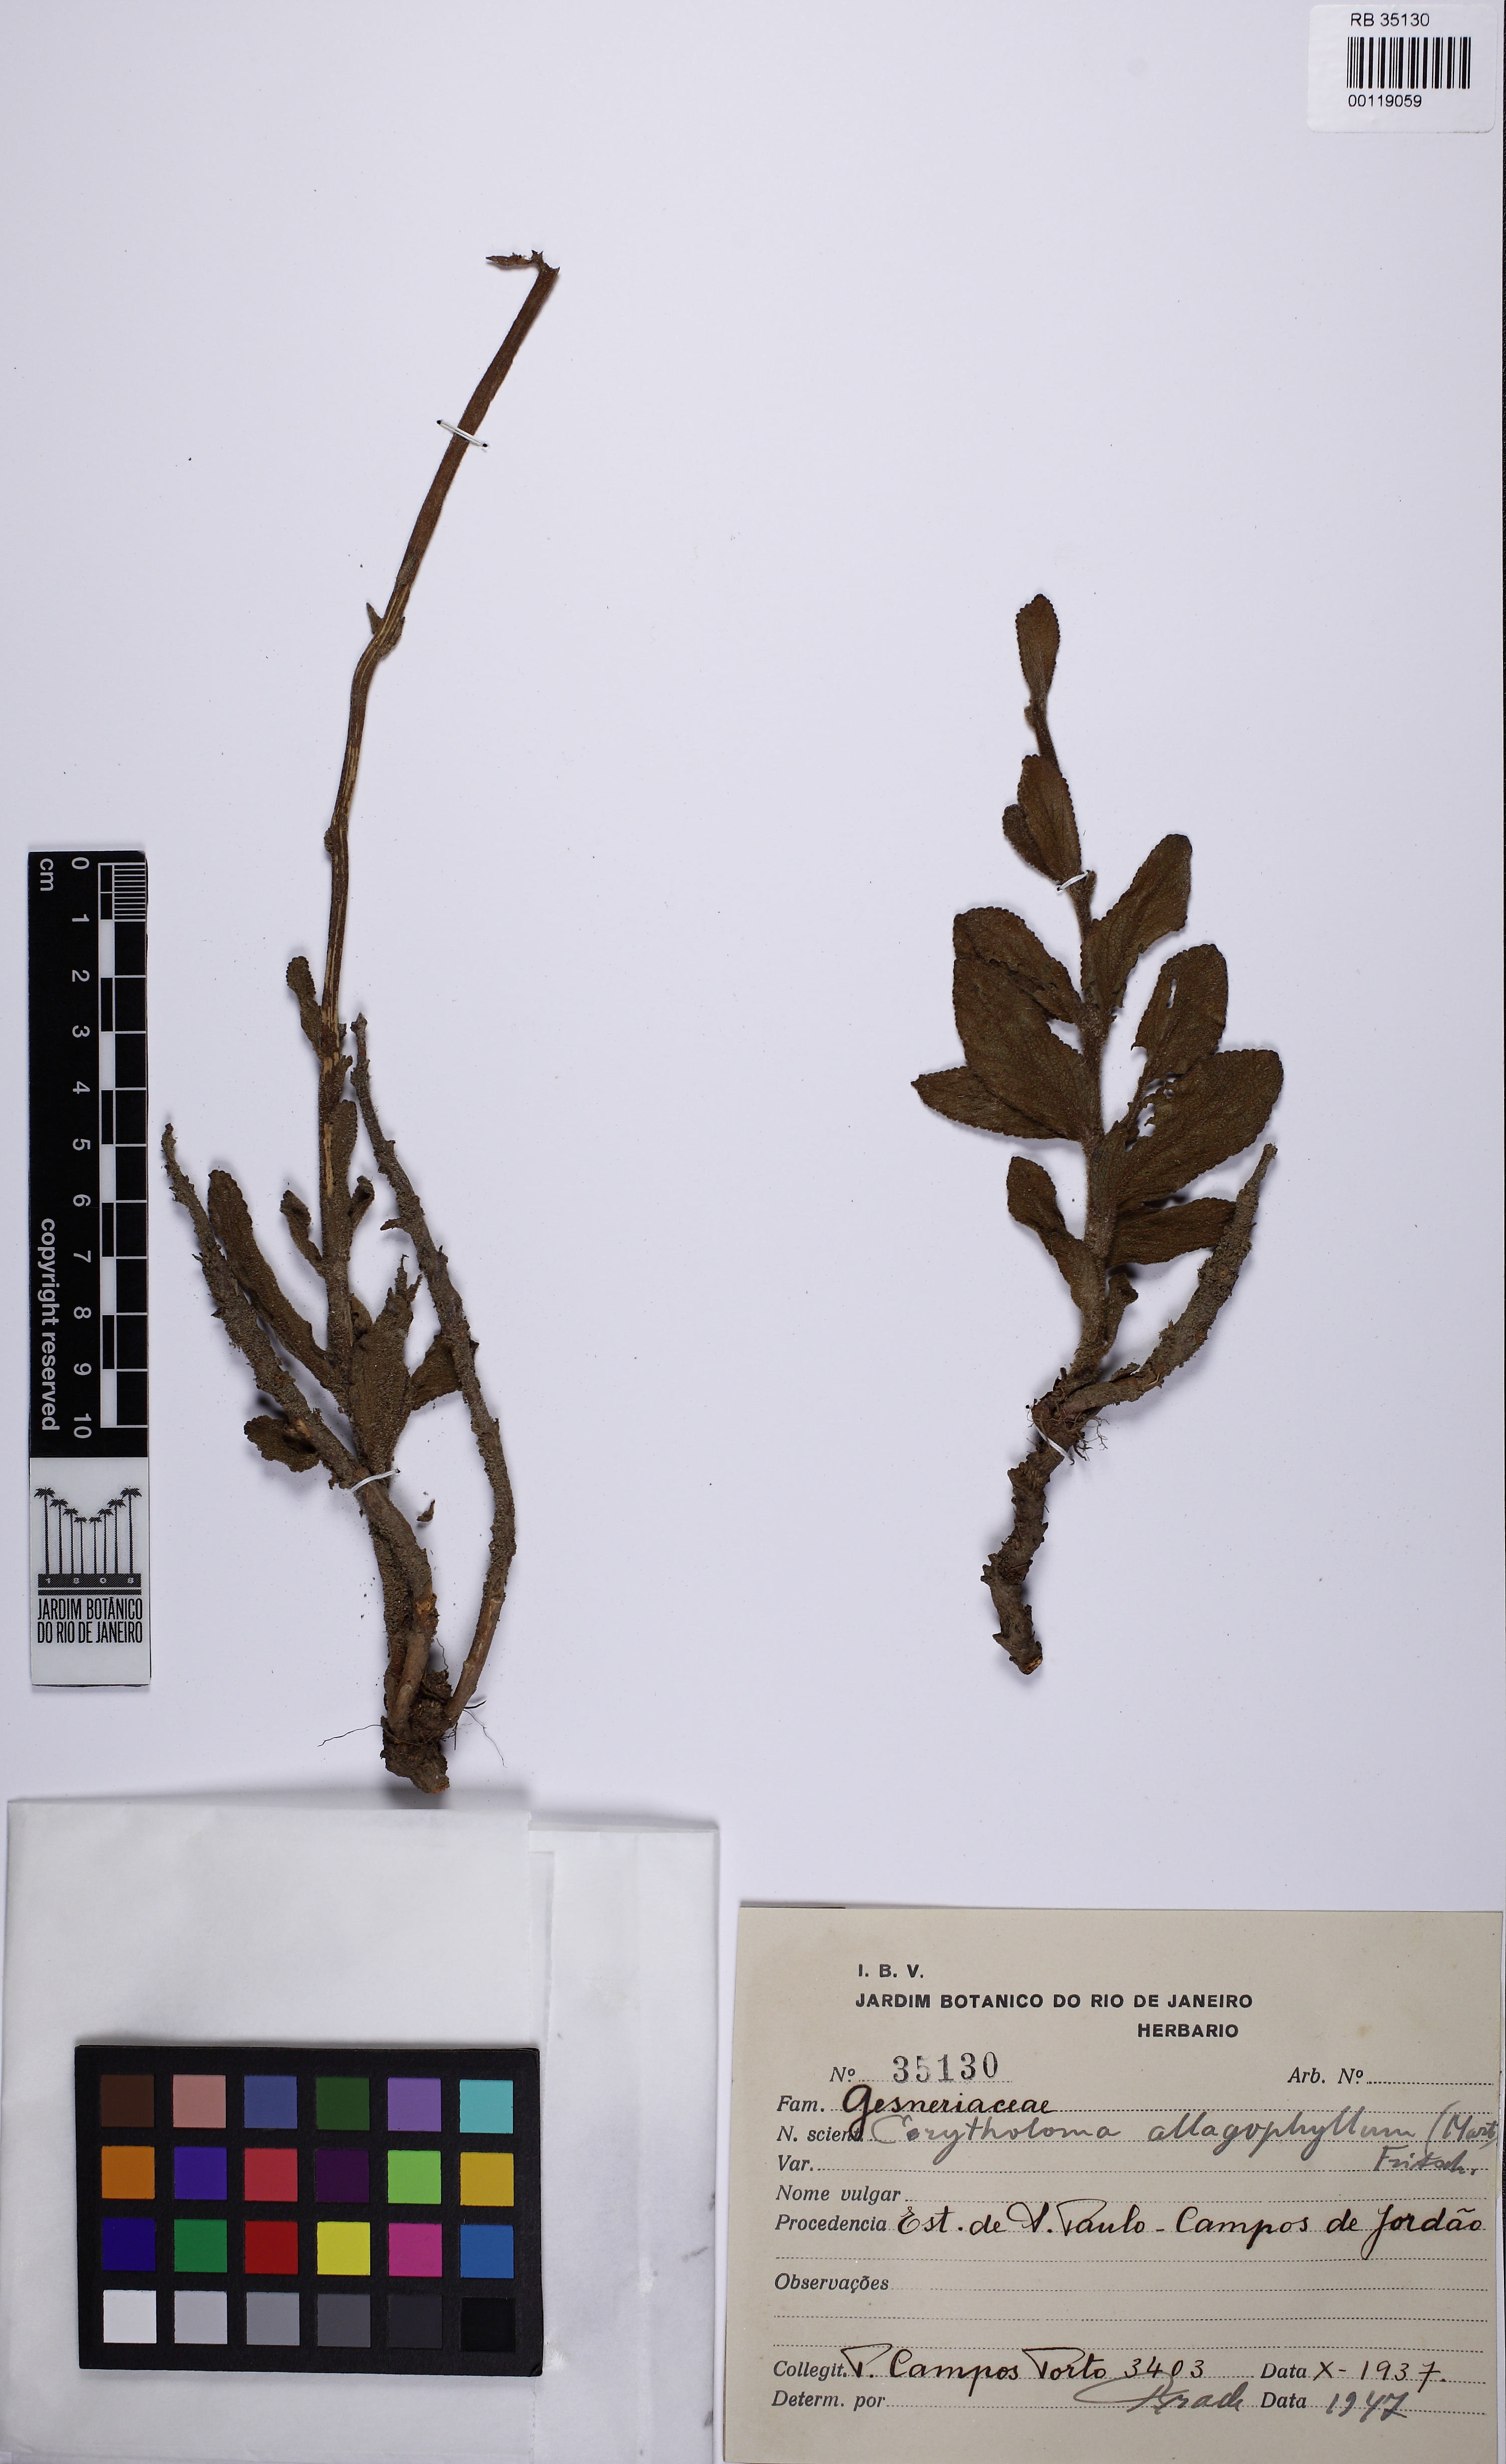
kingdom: Plantae
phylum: Tracheophyta
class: Magnoliopsida
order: Lamiales
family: Gesneriaceae
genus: Sinningia
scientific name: Sinningia allagophylla
